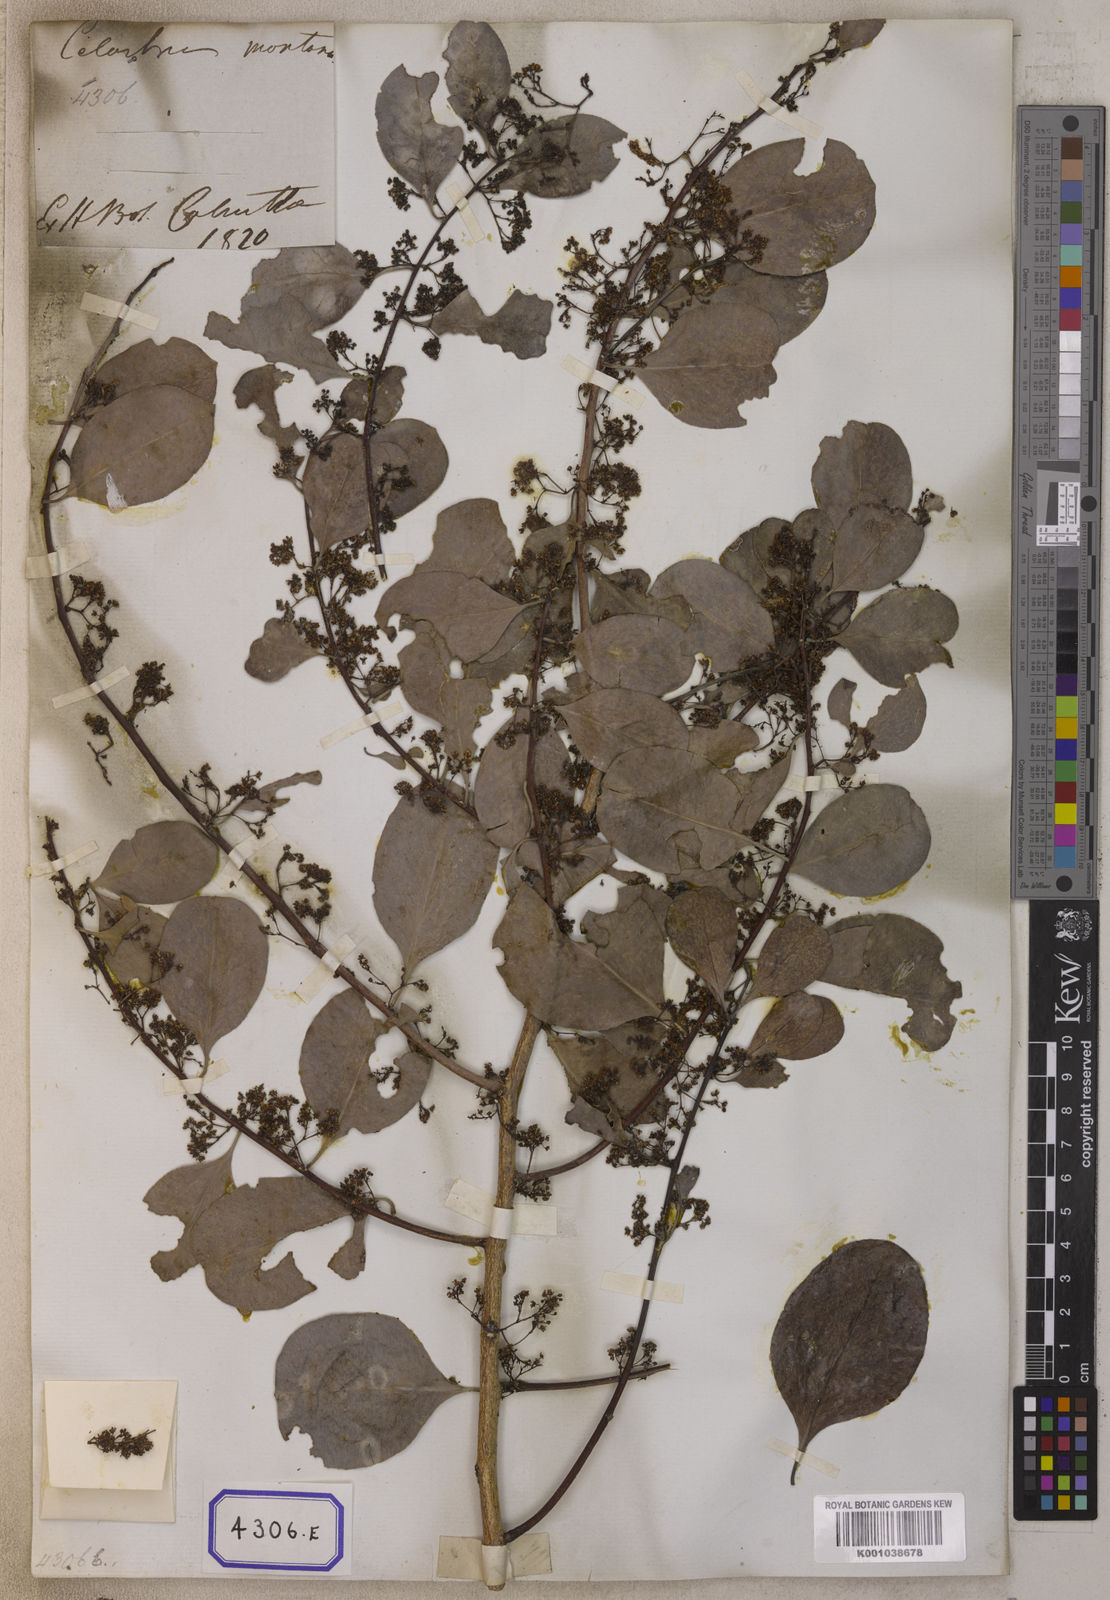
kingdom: Plantae
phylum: Tracheophyta
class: Magnoliopsida
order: Celastrales
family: Celastraceae
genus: Celastrus
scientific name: Celastrus
